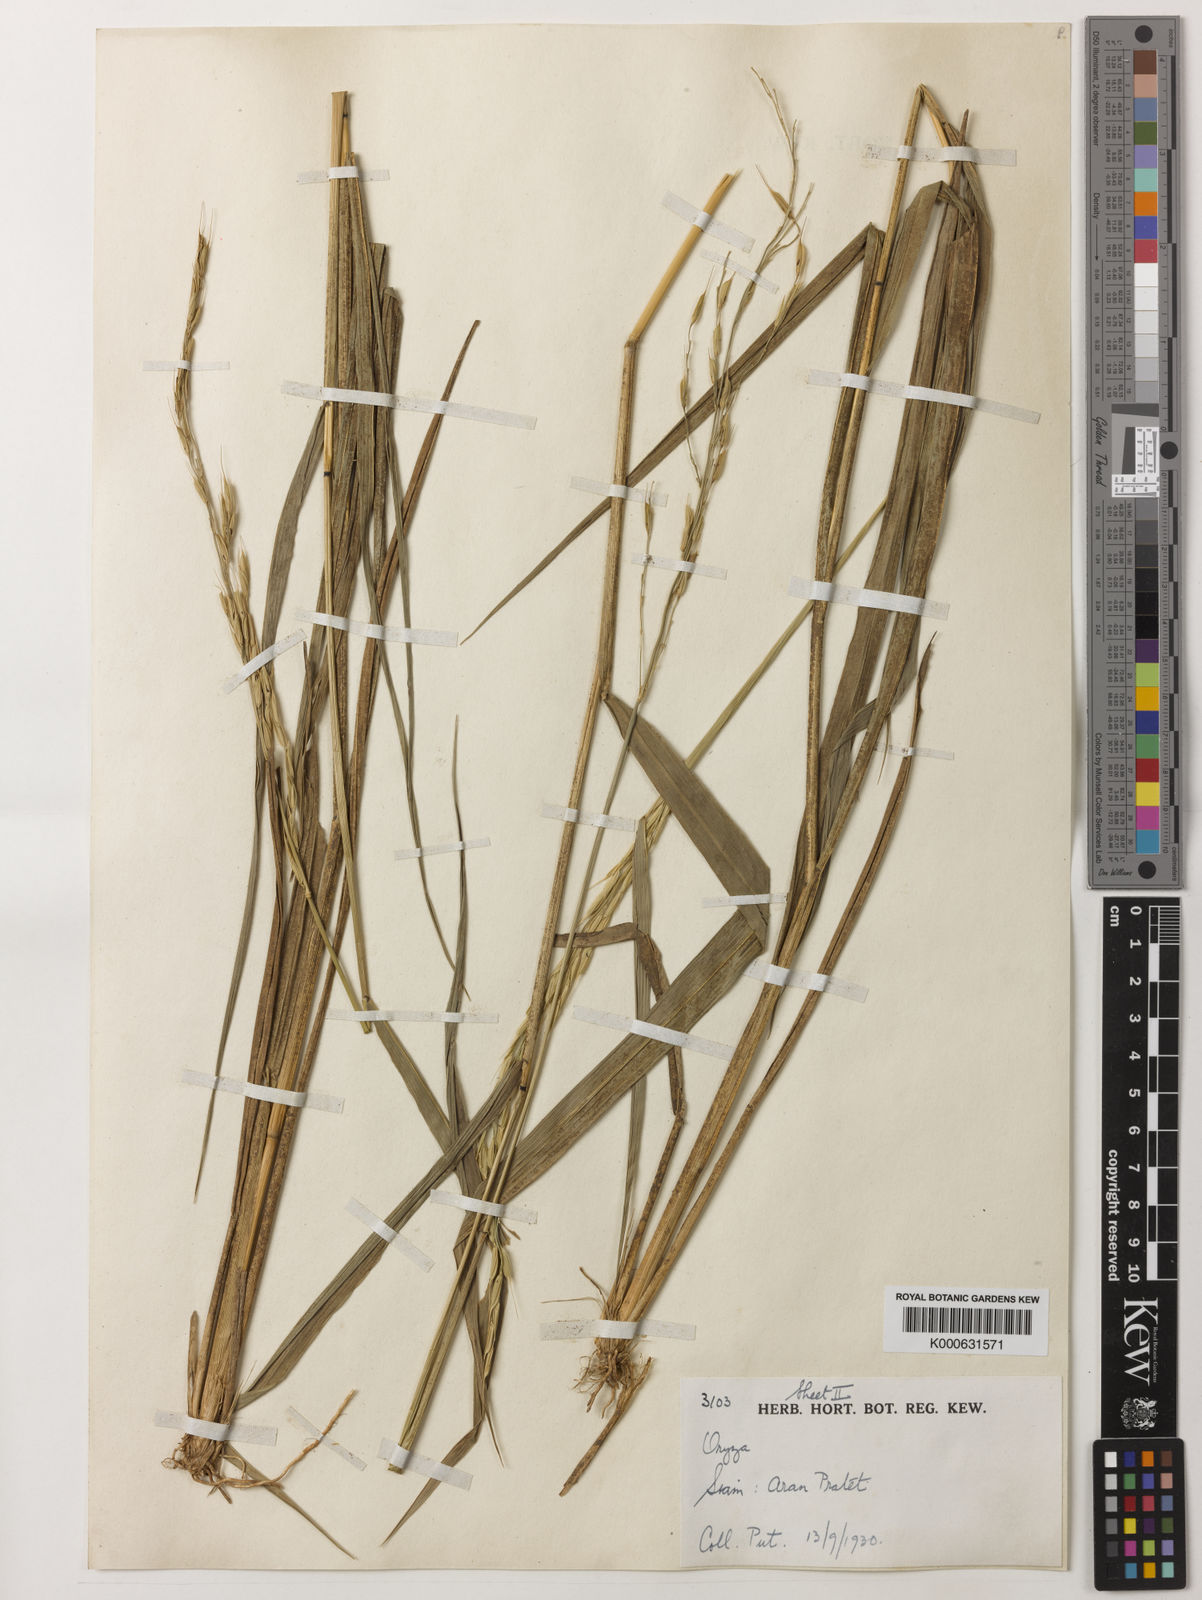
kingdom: Plantae
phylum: Tracheophyta
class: Liliopsida
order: Poales
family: Poaceae
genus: Oryza
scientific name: Oryza ridleyi
